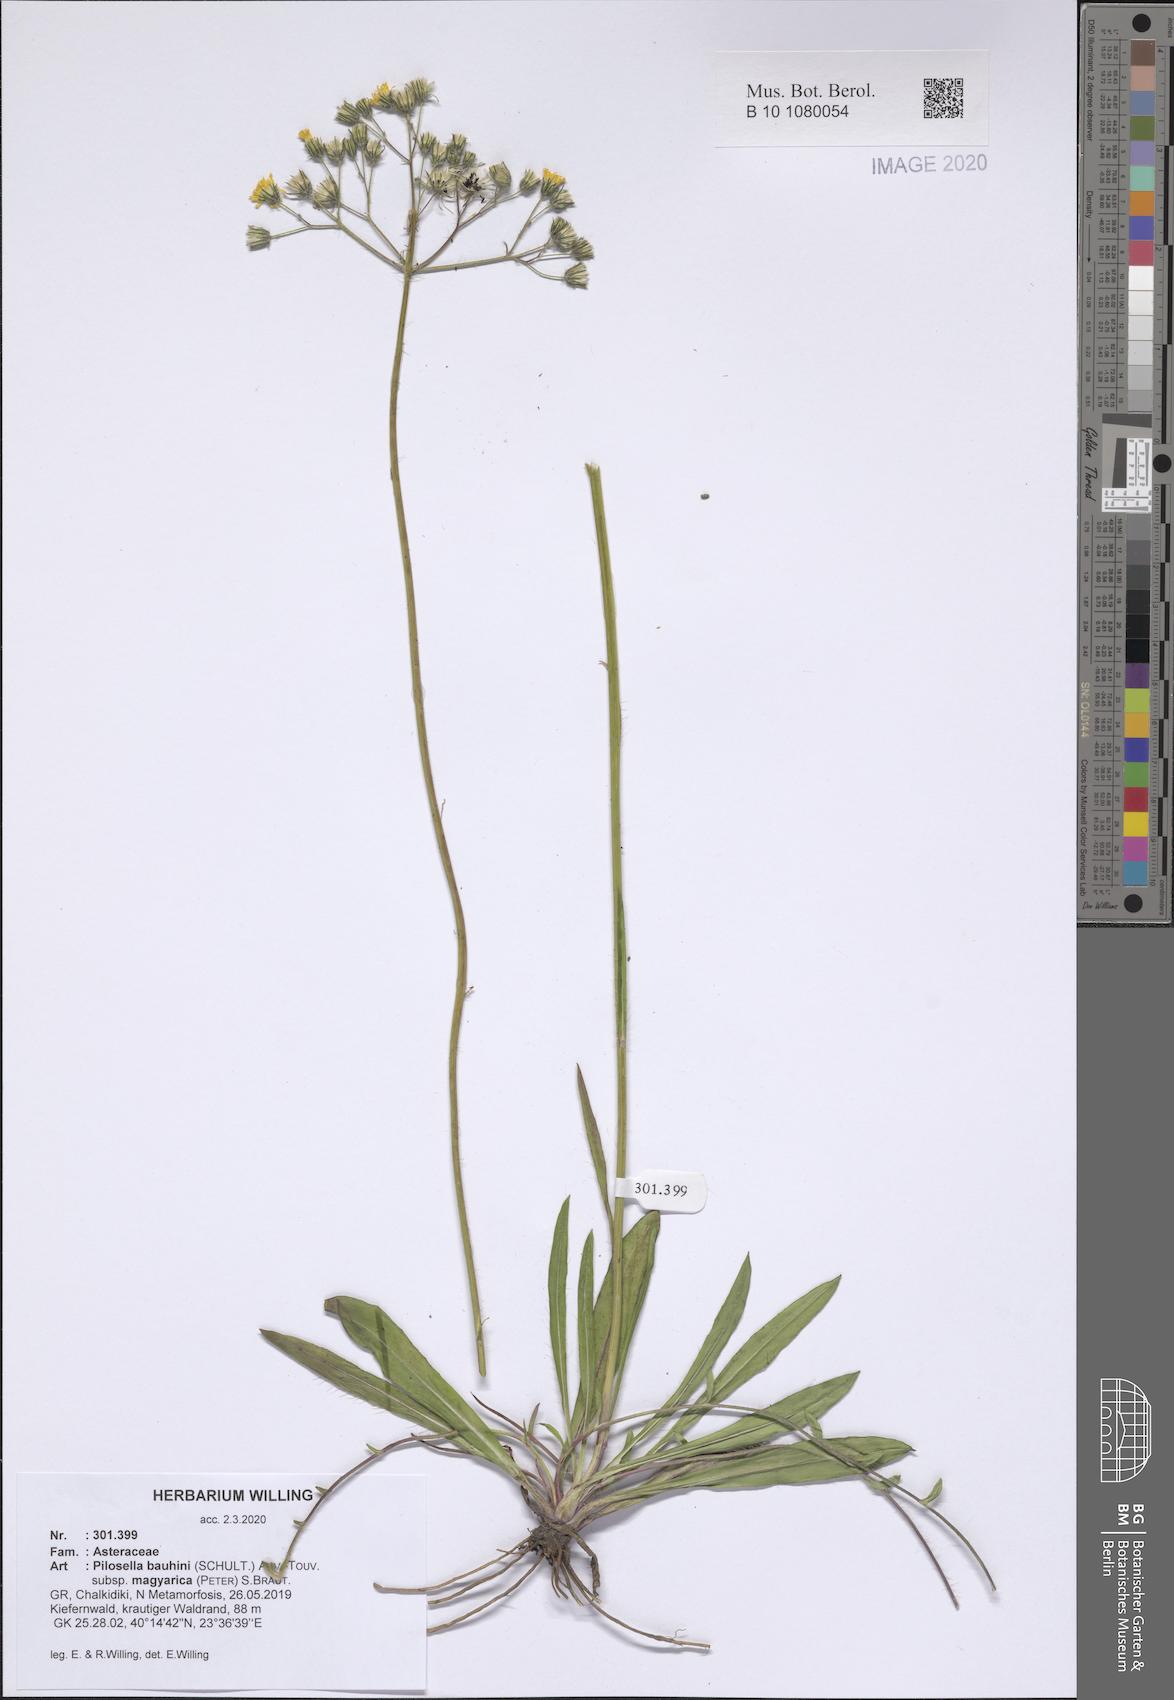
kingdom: Plantae
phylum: Tracheophyta
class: Magnoliopsida
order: Asterales
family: Asteraceae
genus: Pilosella
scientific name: Pilosella bauhini
